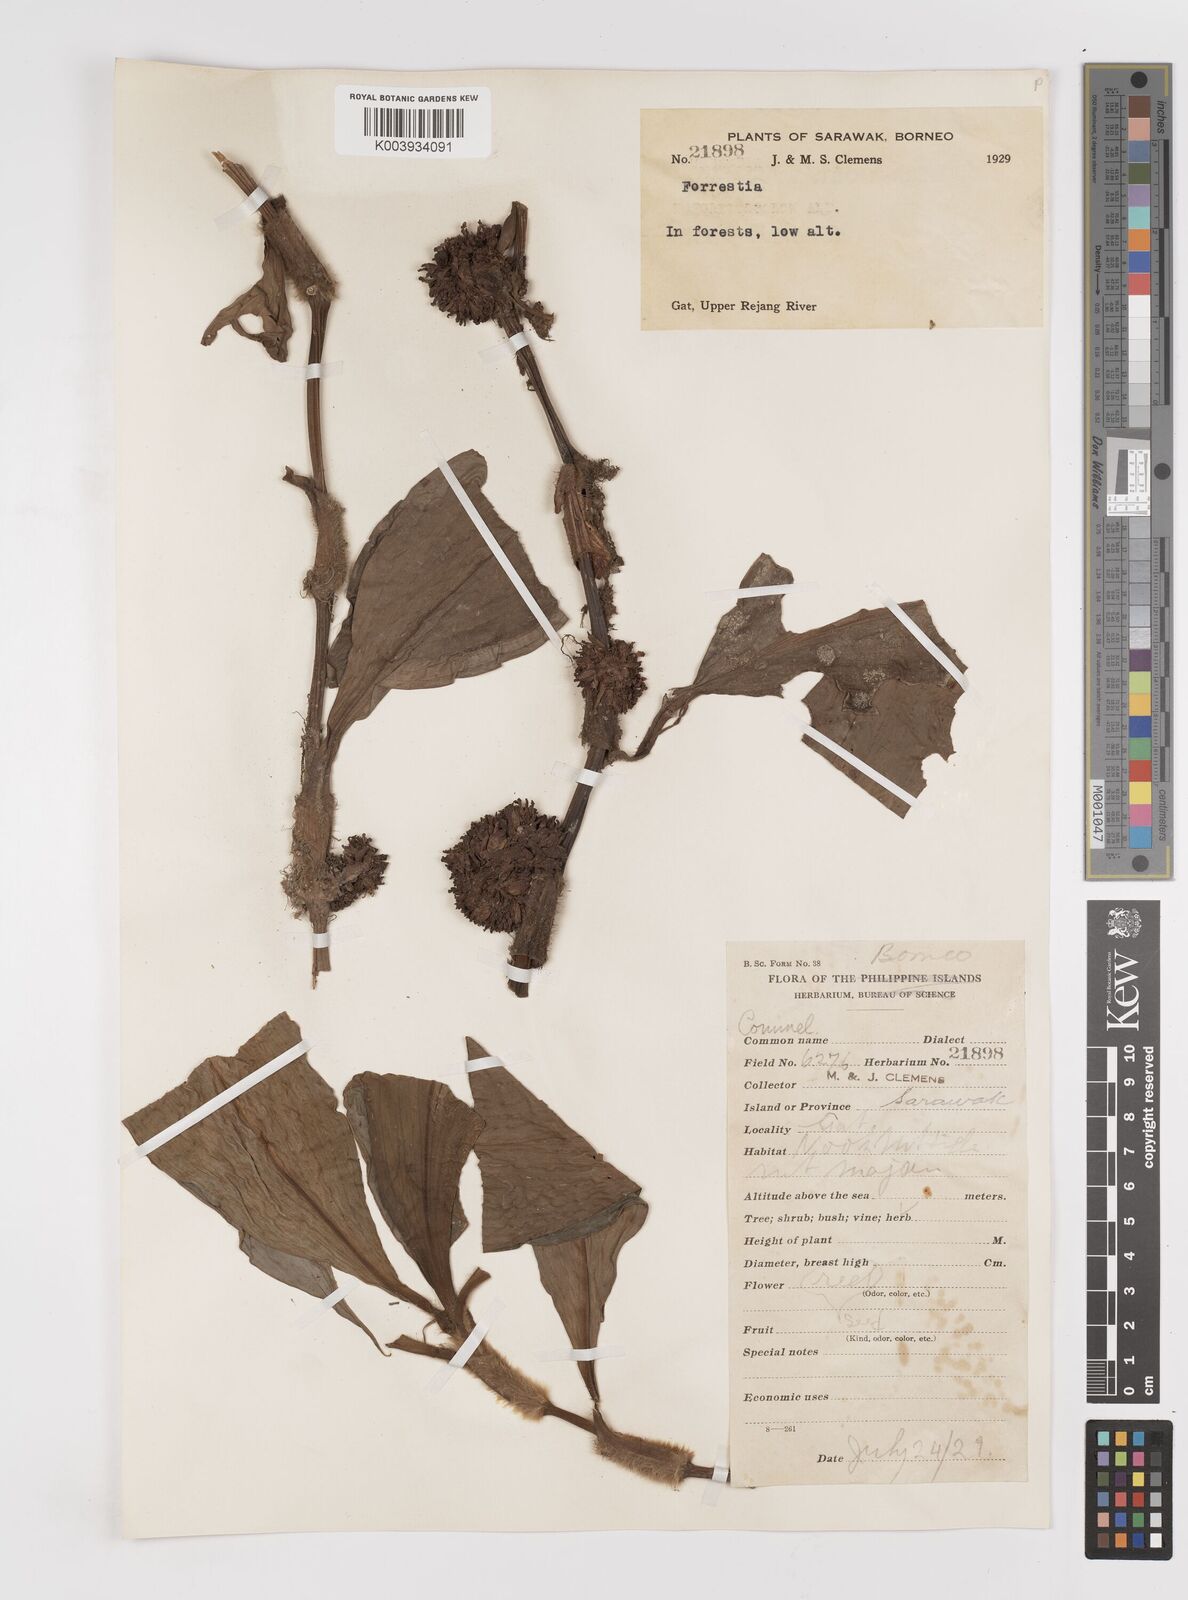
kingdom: Plantae
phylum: Tracheophyta
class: Liliopsida
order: Commelinales
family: Commelinaceae
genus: Amischotolype
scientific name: Amischotolype
